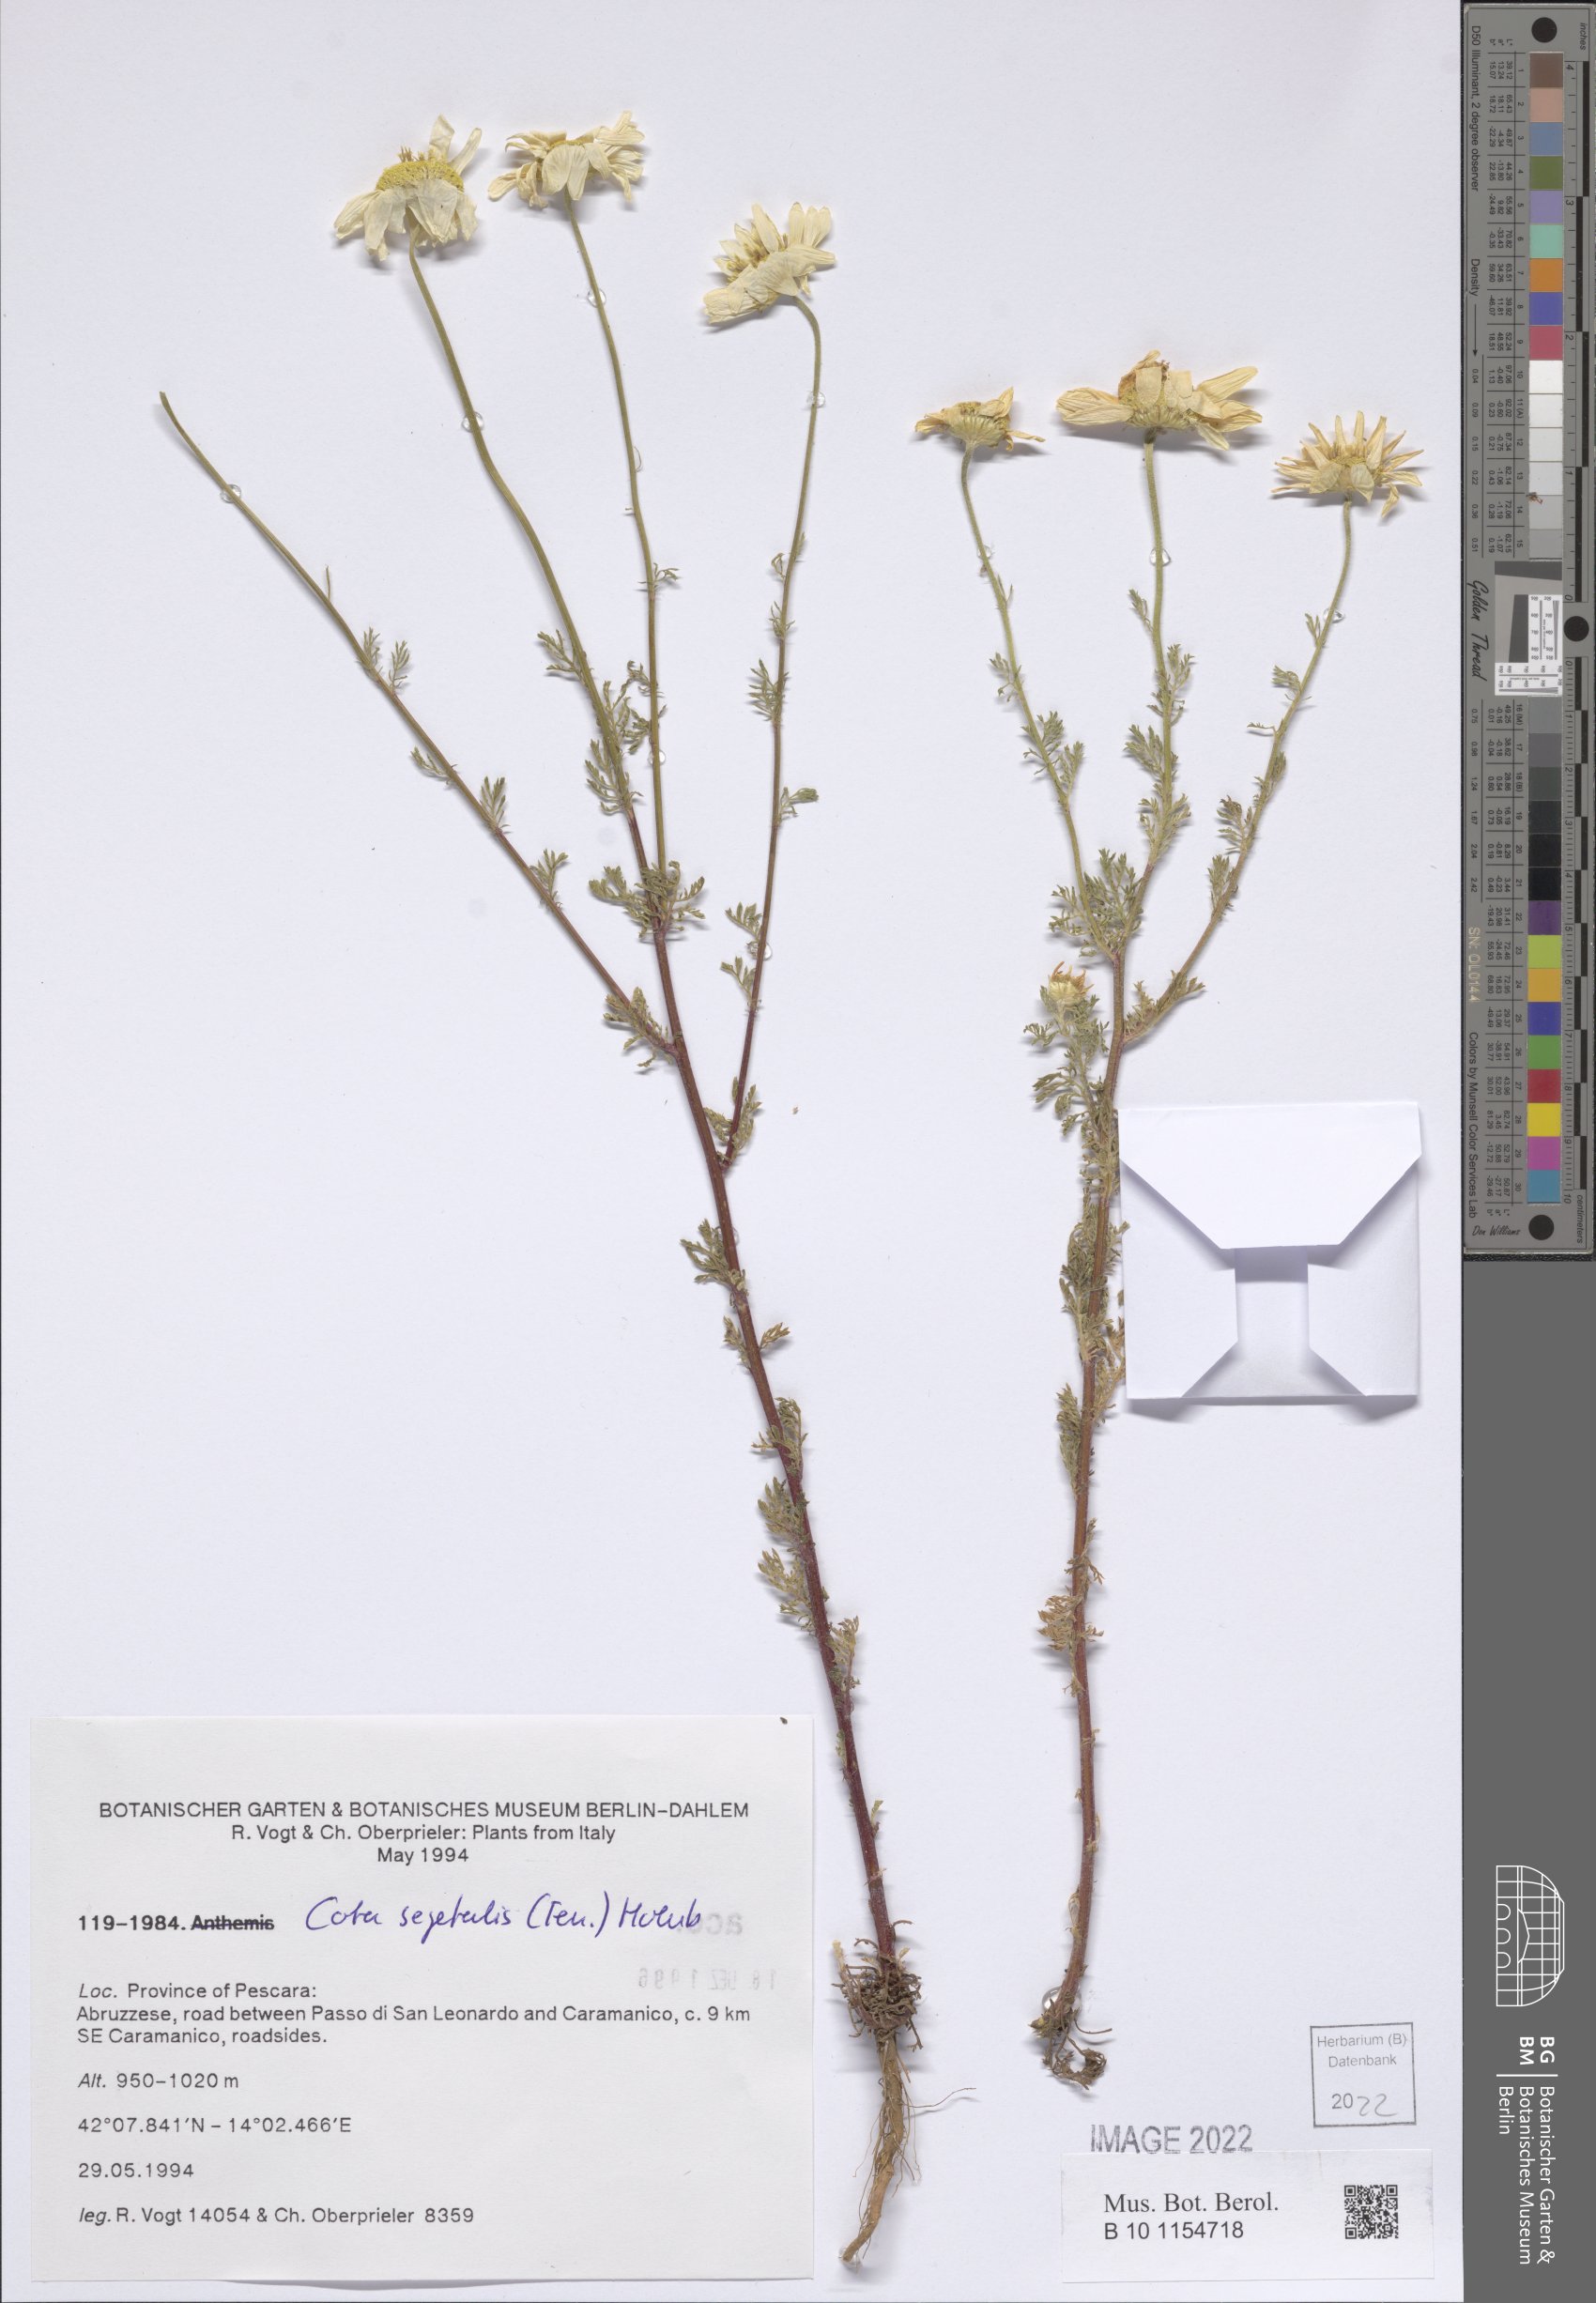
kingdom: Plantae
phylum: Tracheophyta
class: Magnoliopsida
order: Asterales
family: Asteraceae
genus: Cota
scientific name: Cota segetalis
